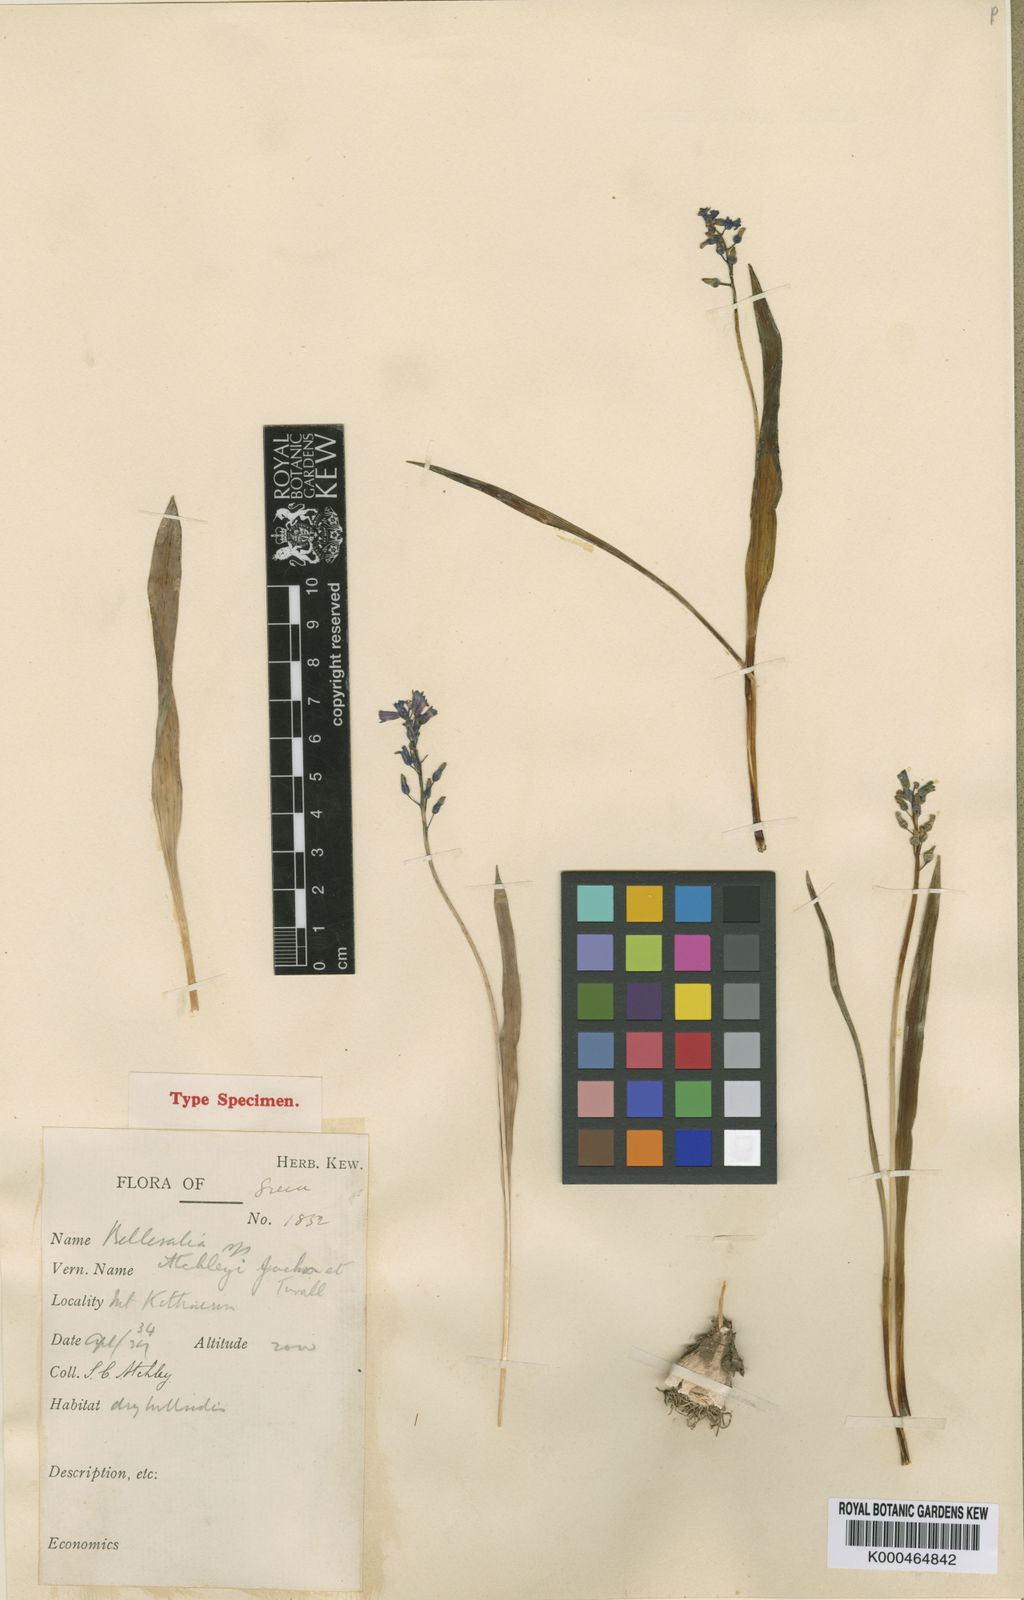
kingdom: Plantae
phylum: Tracheophyta
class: Liliopsida
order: Asparagales
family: Asparagaceae
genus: Hyacinthella
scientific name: Hyacinthella leucophaea
